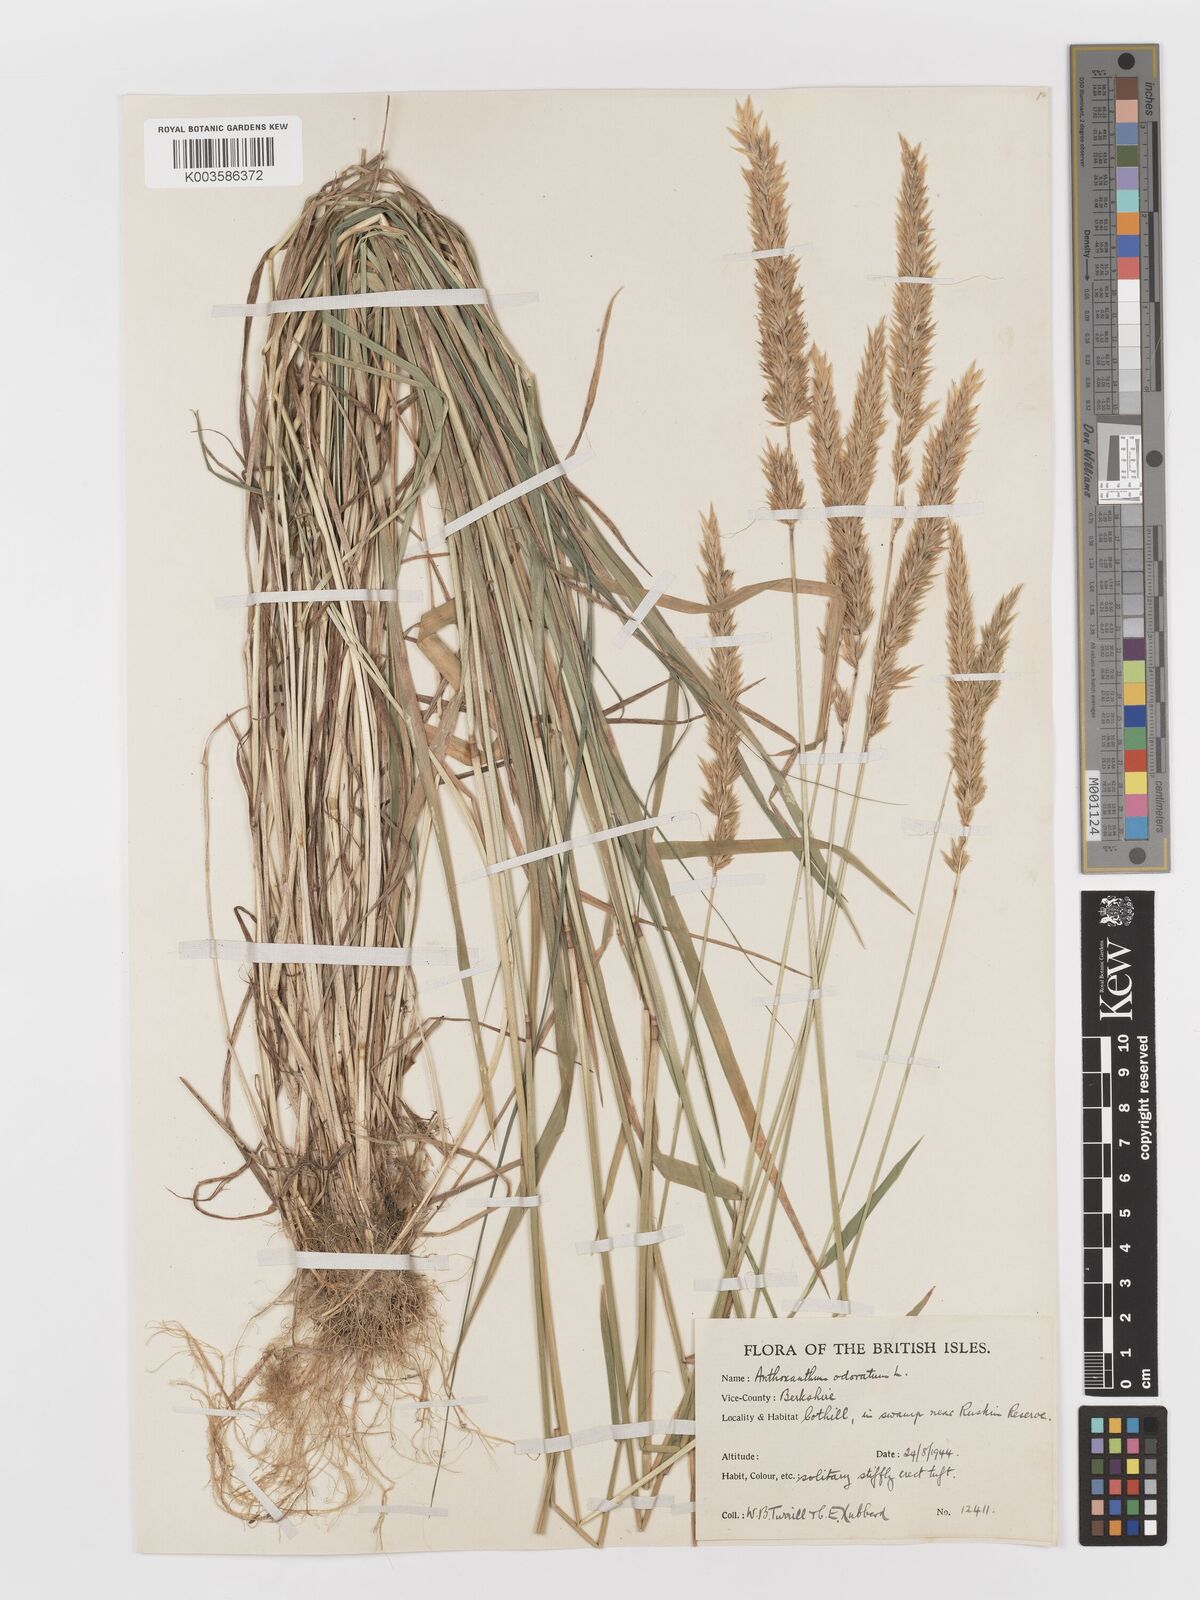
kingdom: Plantae
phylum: Tracheophyta
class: Liliopsida
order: Poales
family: Poaceae
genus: Anthoxanthum
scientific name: Anthoxanthum odoratum
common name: Sweet vernalgrass
